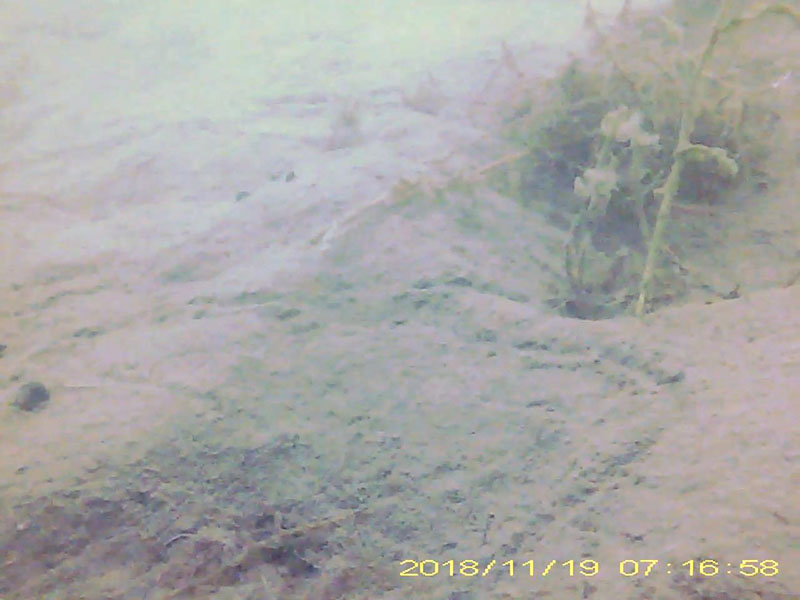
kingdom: Animalia
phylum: Arthropoda
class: Malacostraca
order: Decapoda
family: Hippolytidae
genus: Hippolyte
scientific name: Hippolyte
